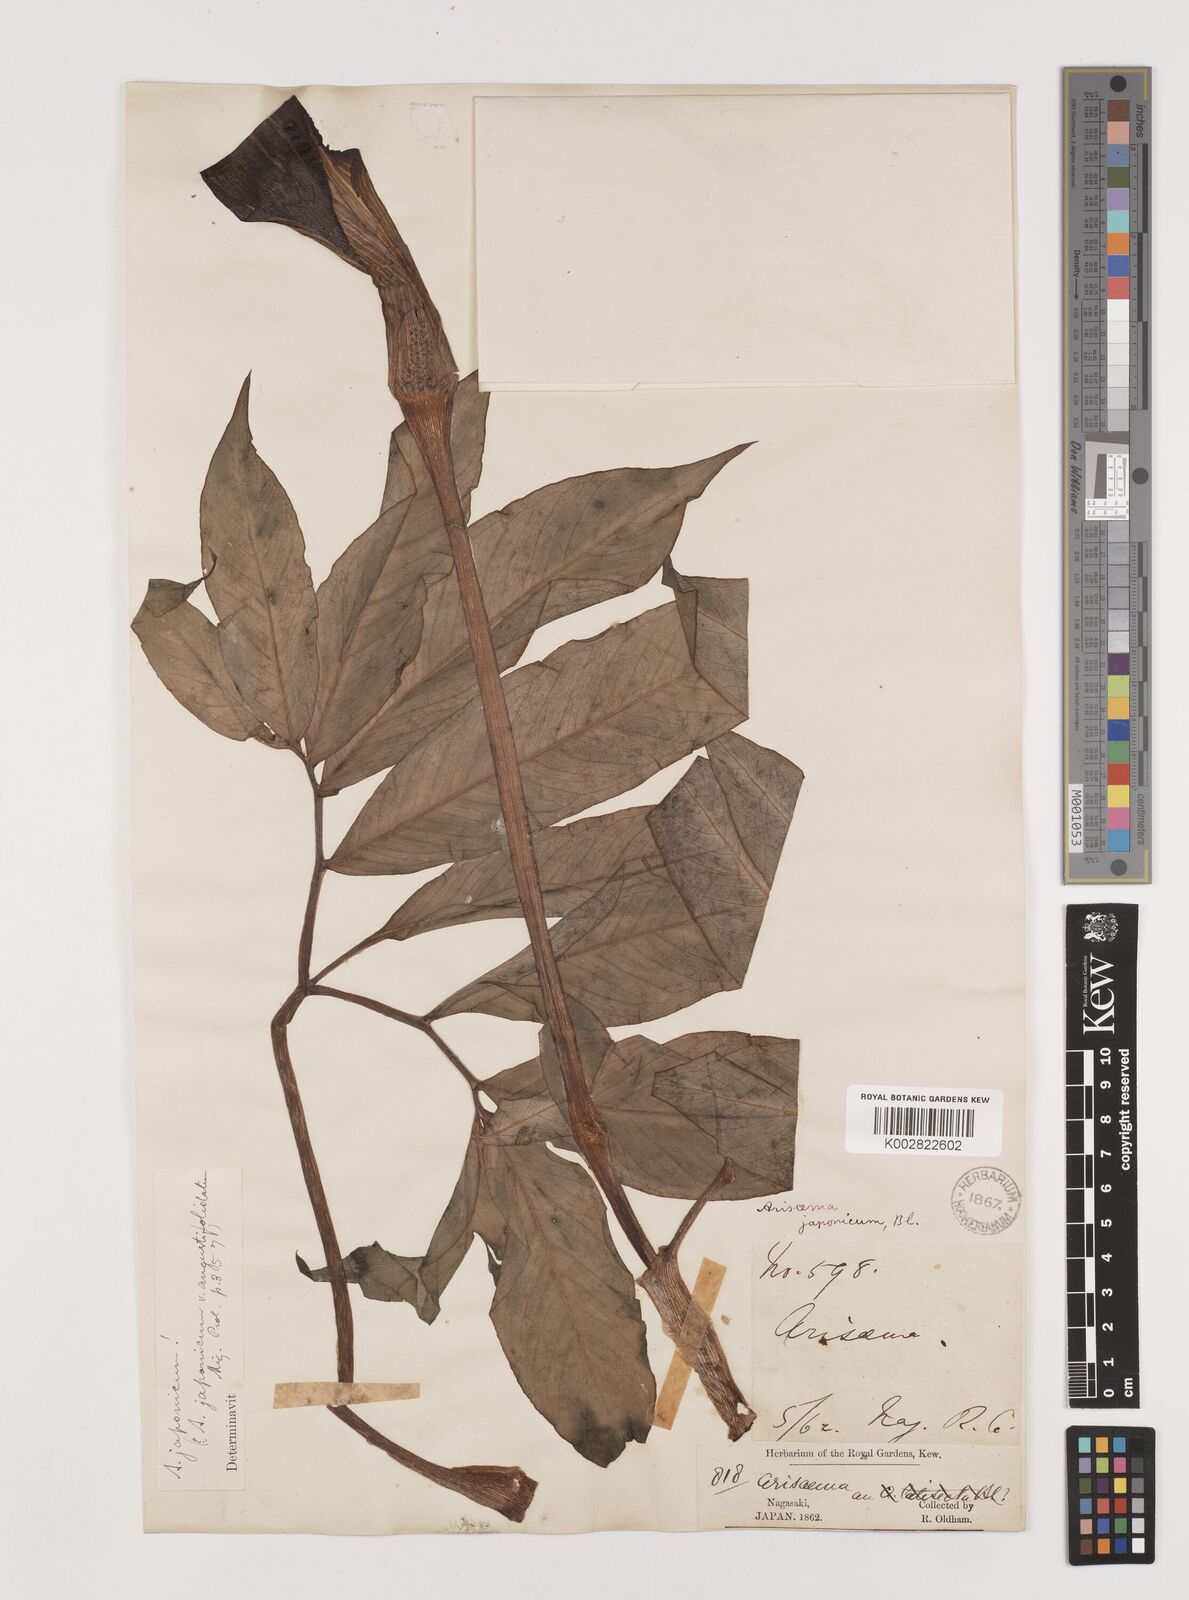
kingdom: Plantae
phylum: Tracheophyta
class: Liliopsida
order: Alismatales
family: Araceae
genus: Arisaema
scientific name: Arisaema serratum
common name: Japanese arisaema
